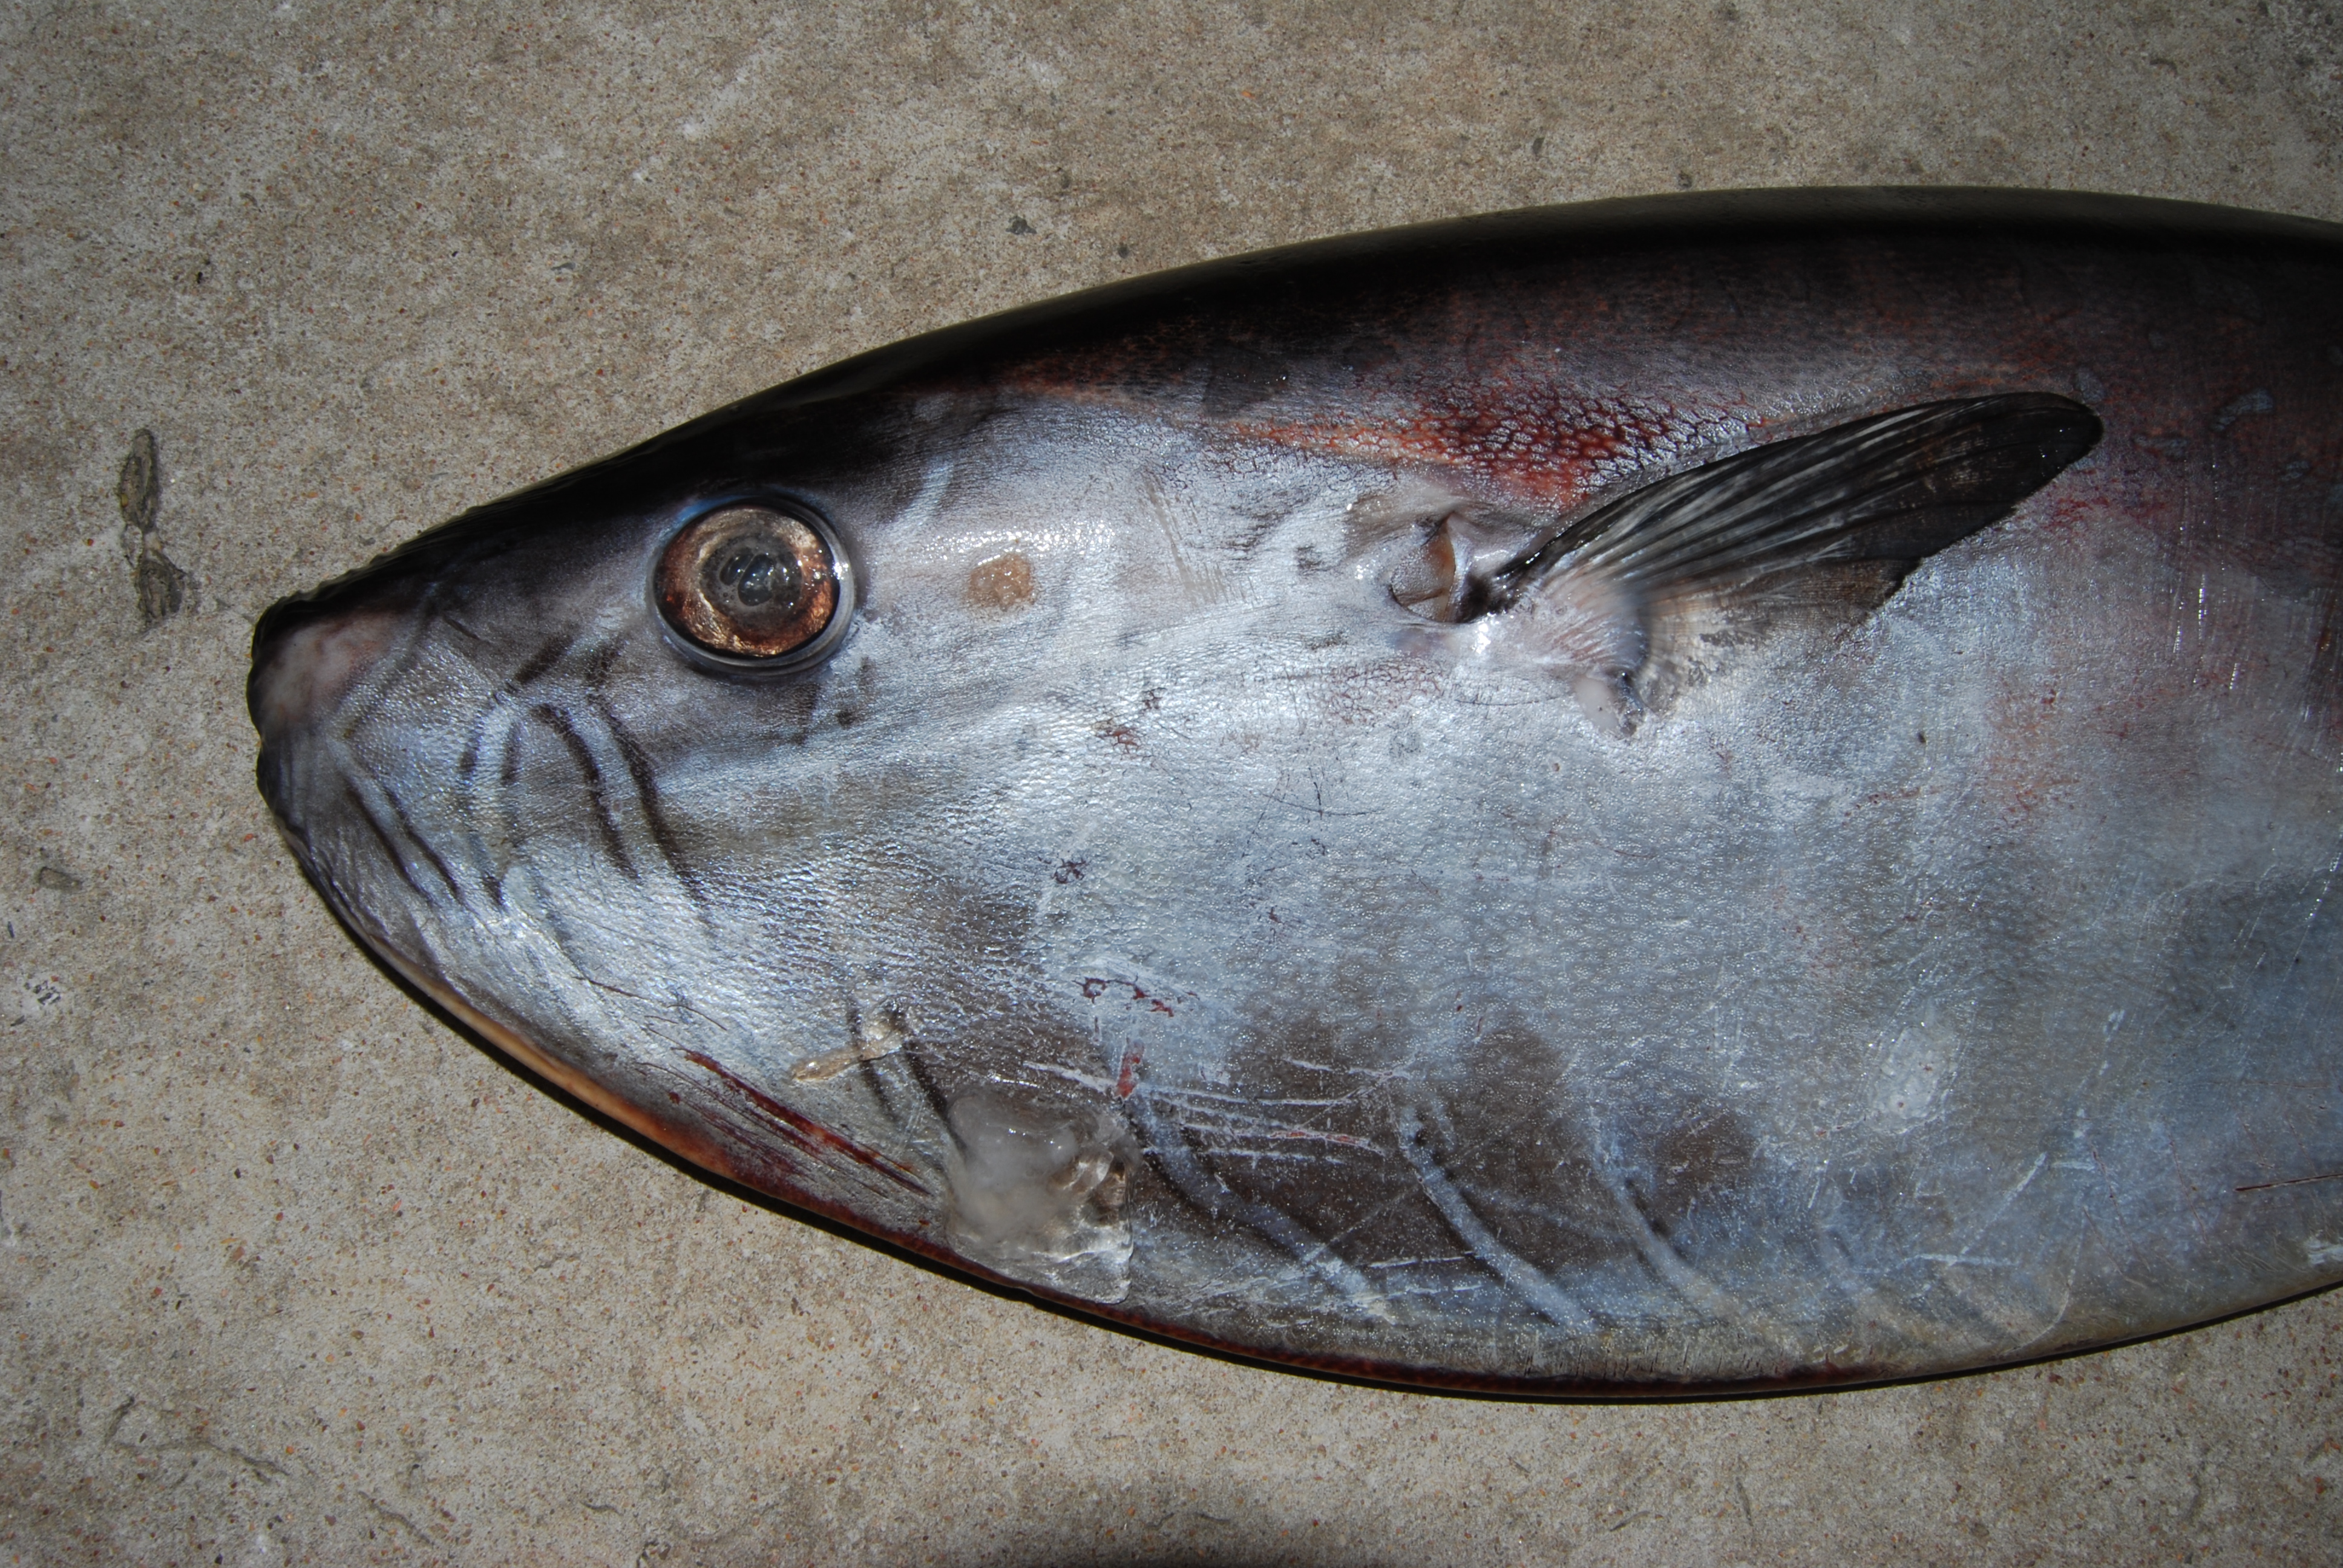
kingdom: Animalia
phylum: Chordata
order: Tetraodontiformes
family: Molidae
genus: Ranzania
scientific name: Ranzania laevis
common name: Slender sunfish
